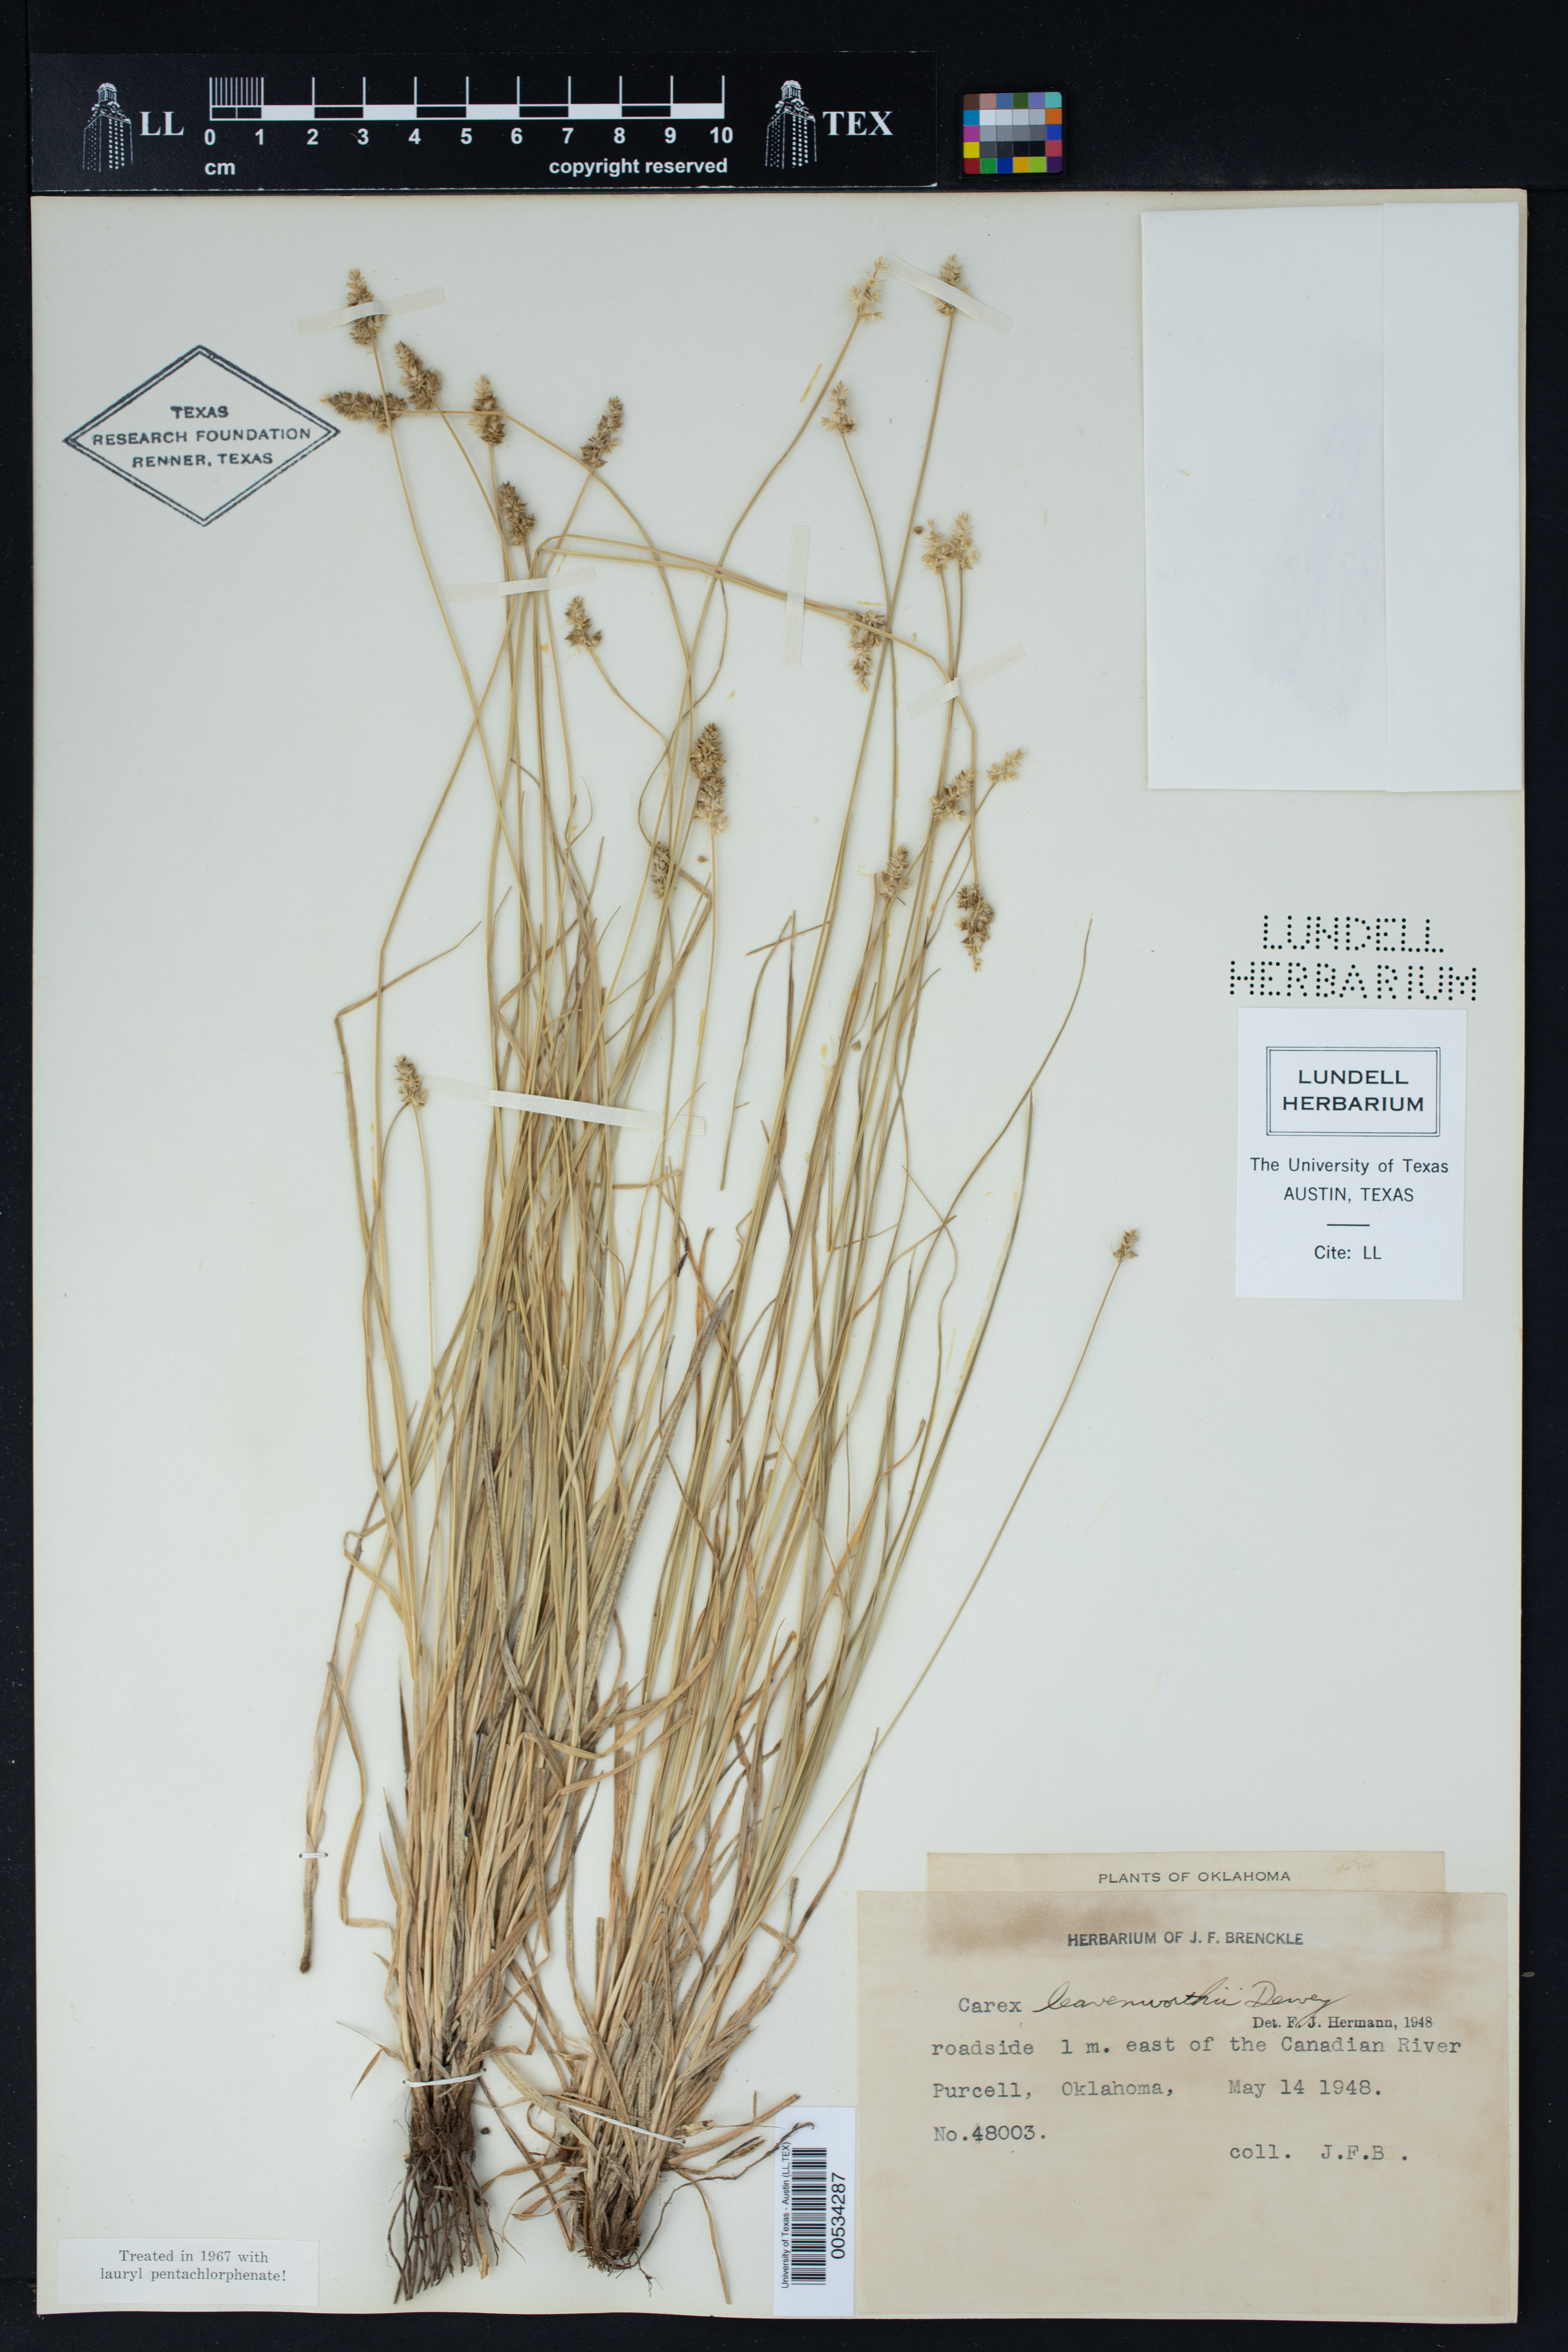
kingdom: Plantae
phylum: Tracheophyta
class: Liliopsida
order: Poales
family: Cyperaceae
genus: Carex
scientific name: Carex leavenworthii
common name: Leavenworth's bracted sedge
